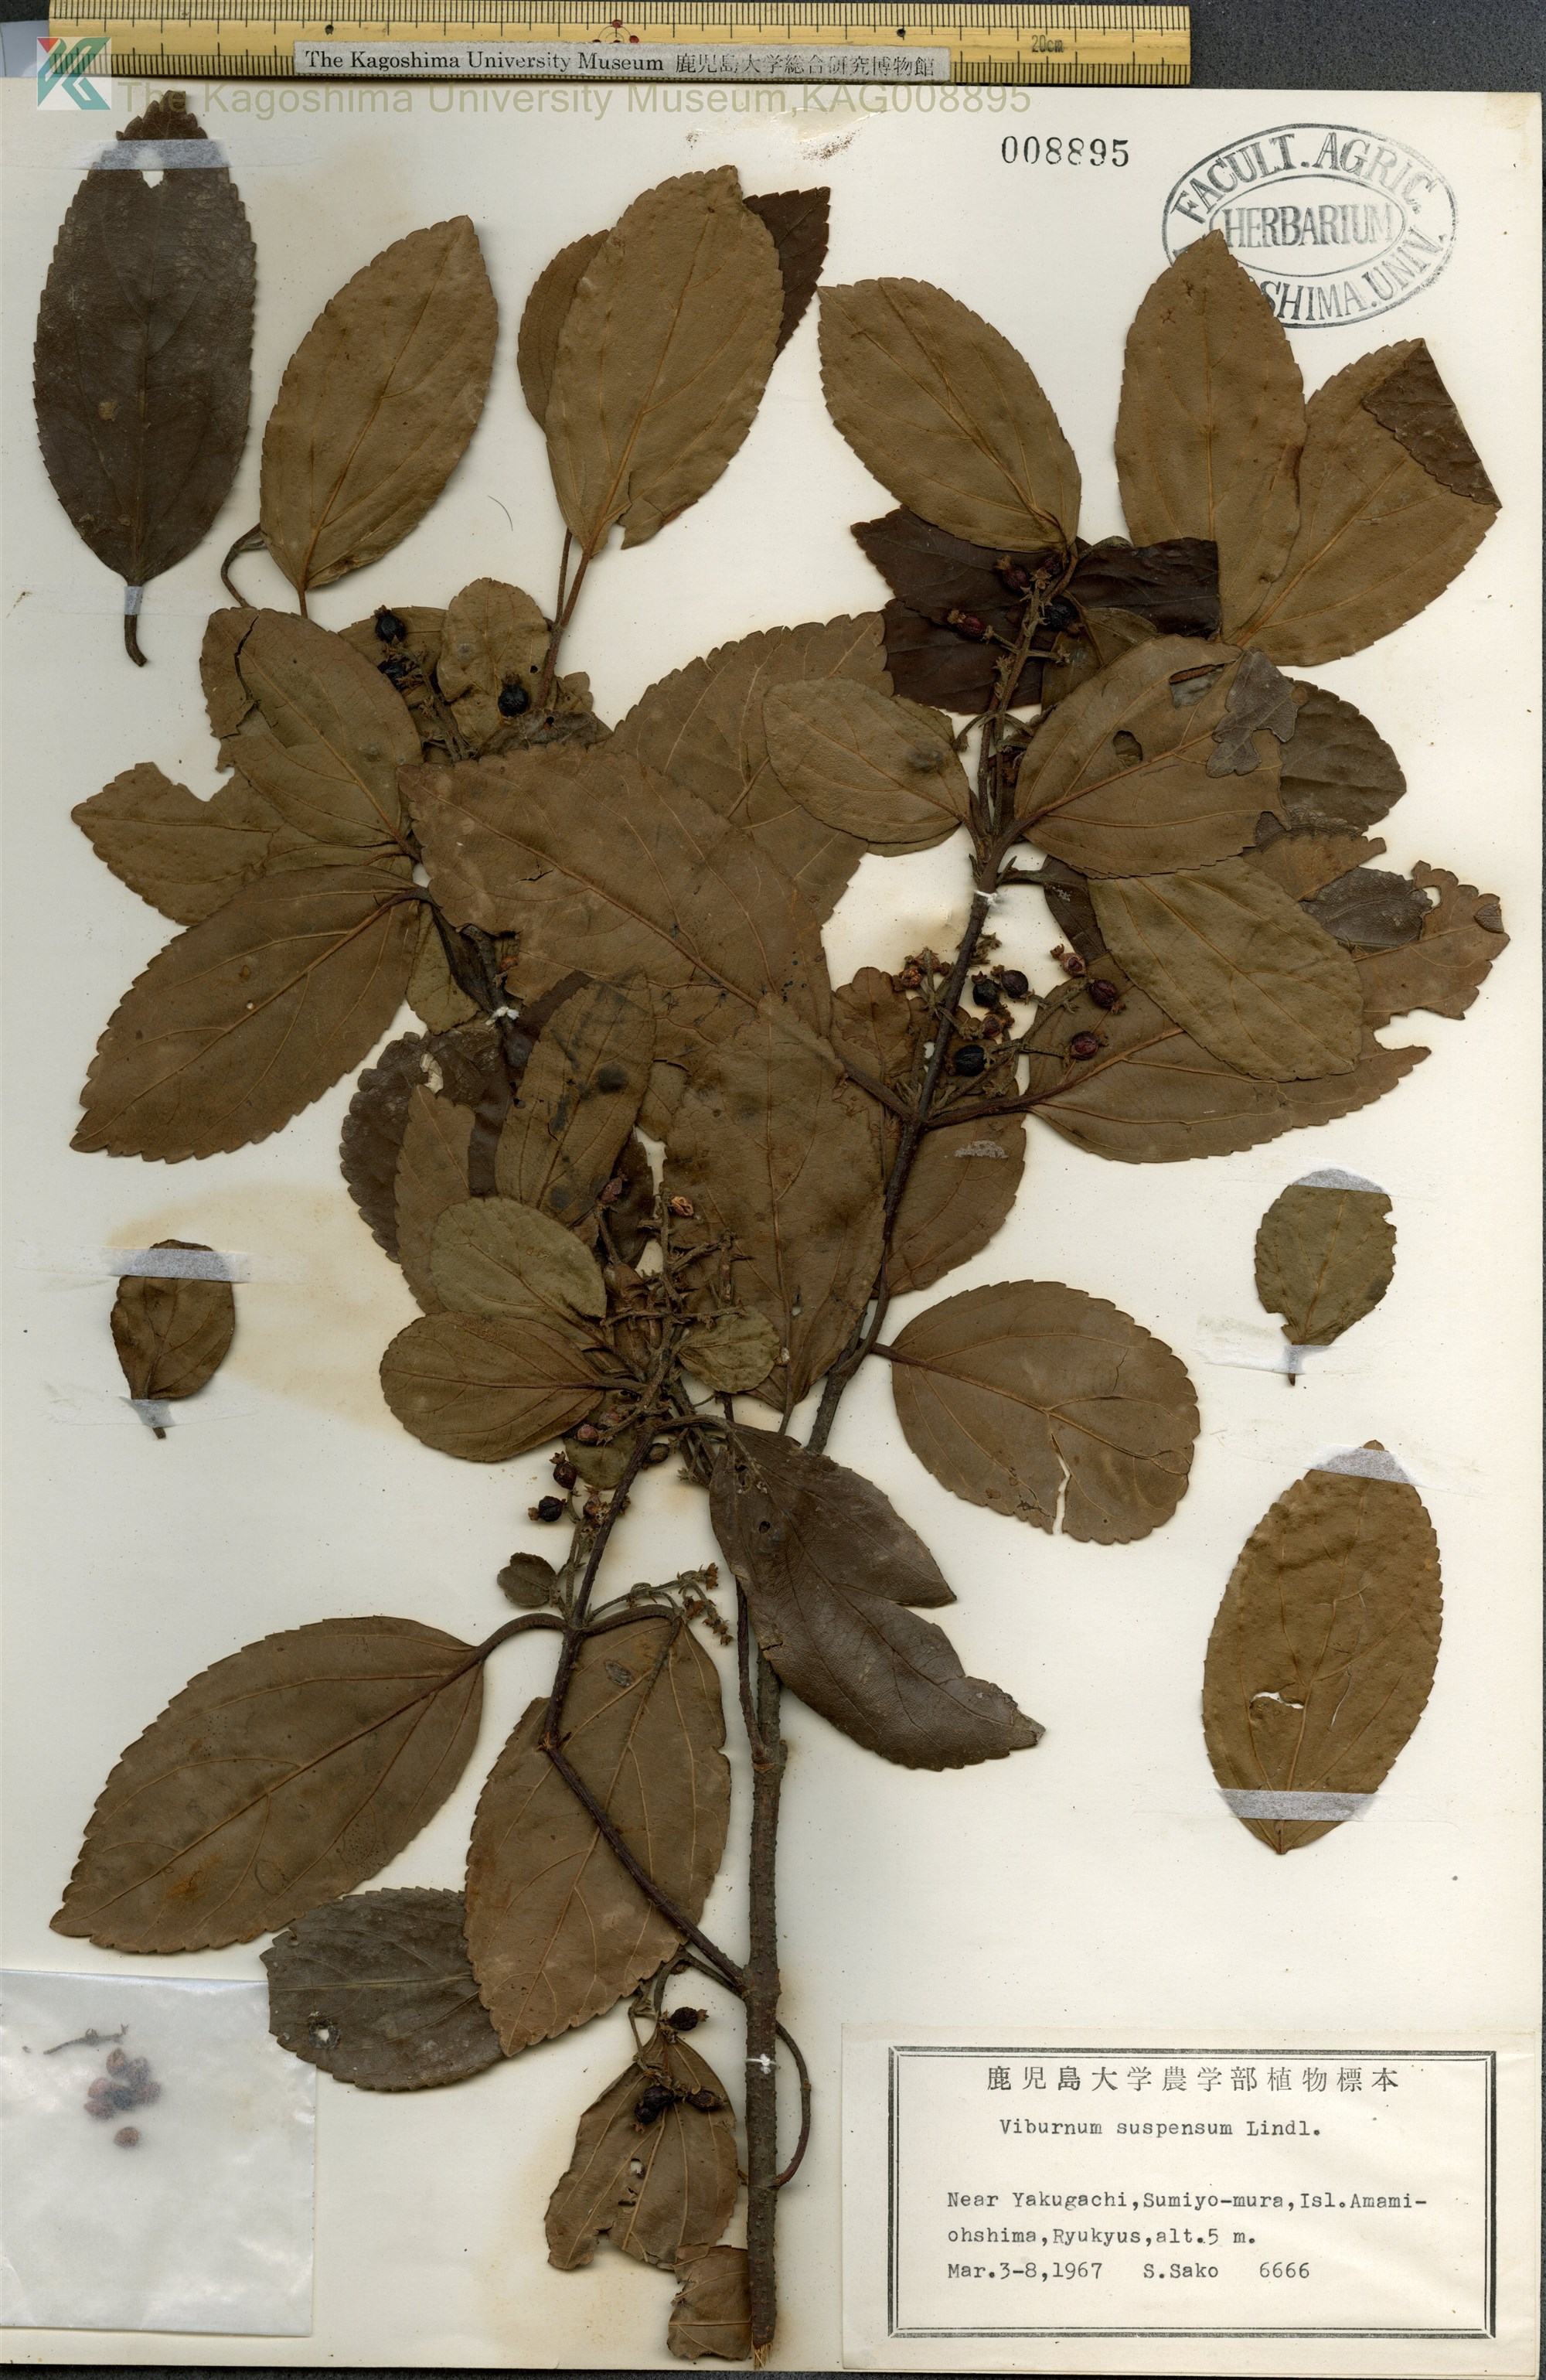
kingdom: Plantae
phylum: Tracheophyta
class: Magnoliopsida
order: Dipsacales
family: Viburnaceae
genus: Viburnum
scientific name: Viburnum suspensum
